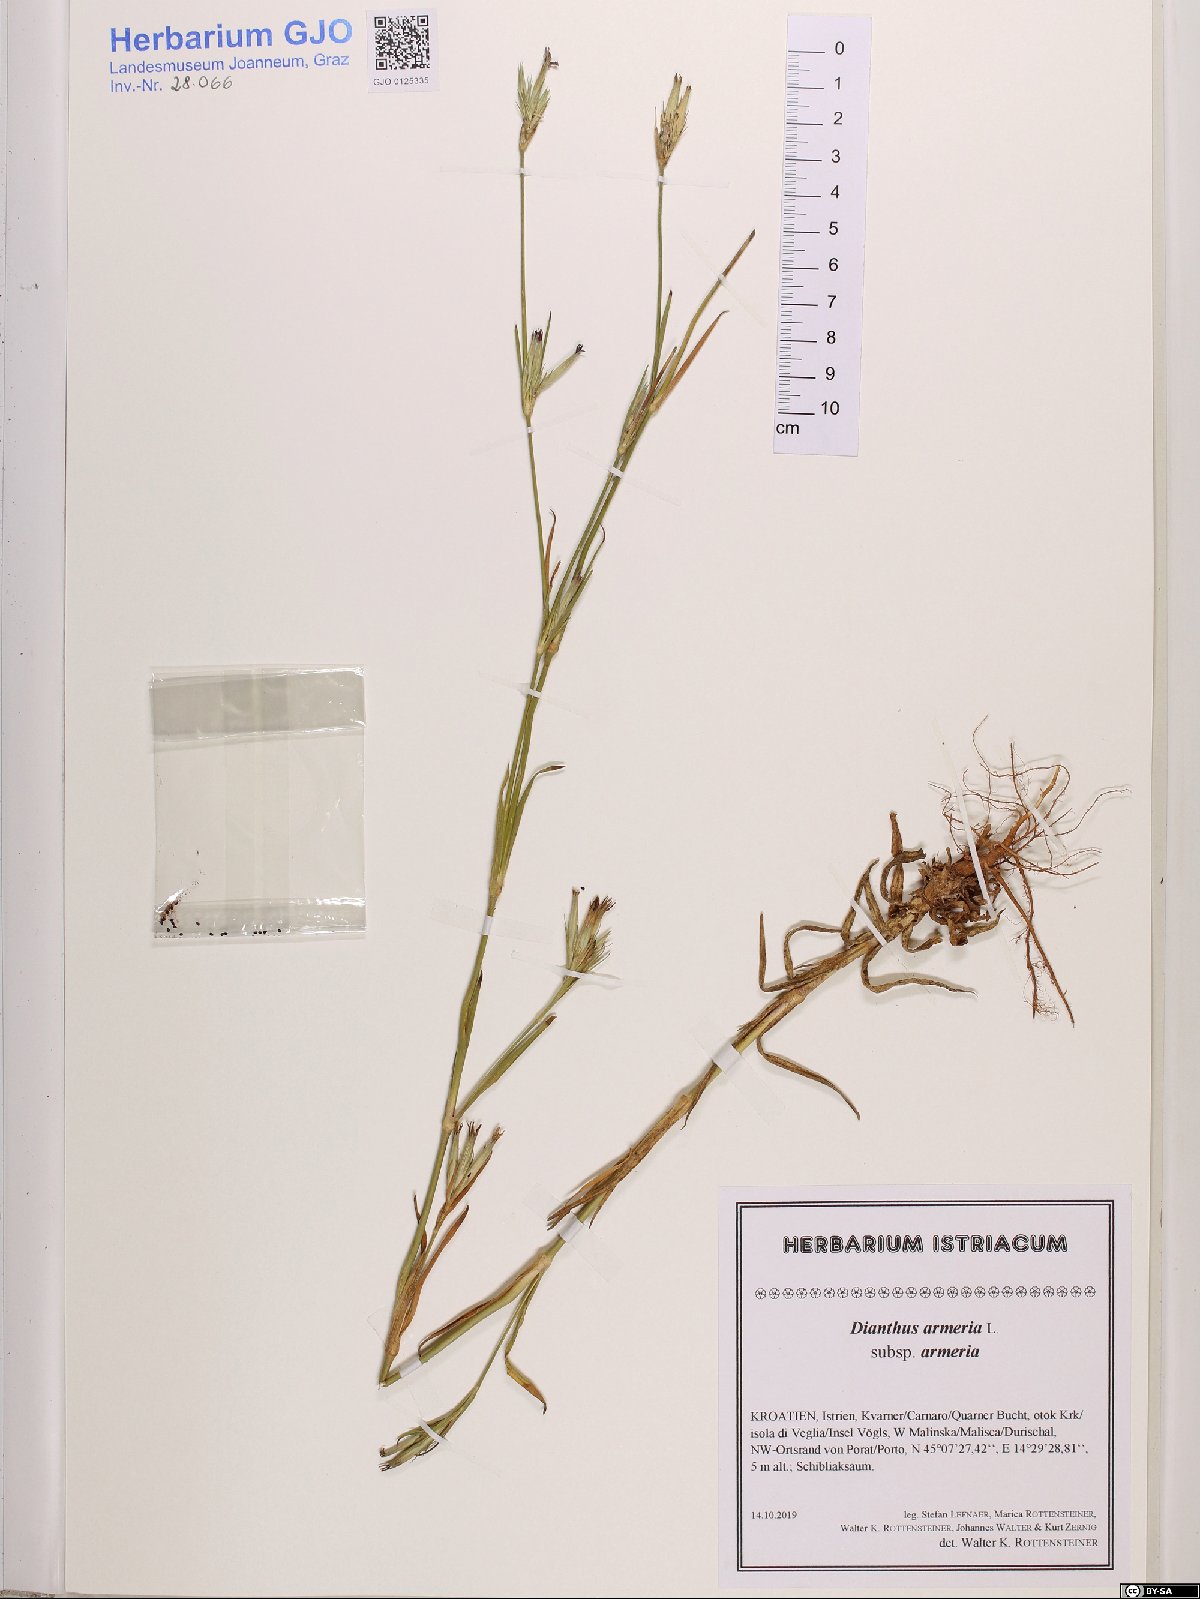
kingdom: Plantae
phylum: Tracheophyta
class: Magnoliopsida
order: Caryophyllales
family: Caryophyllaceae
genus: Dianthus
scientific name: Dianthus armeria
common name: Deptford pink
